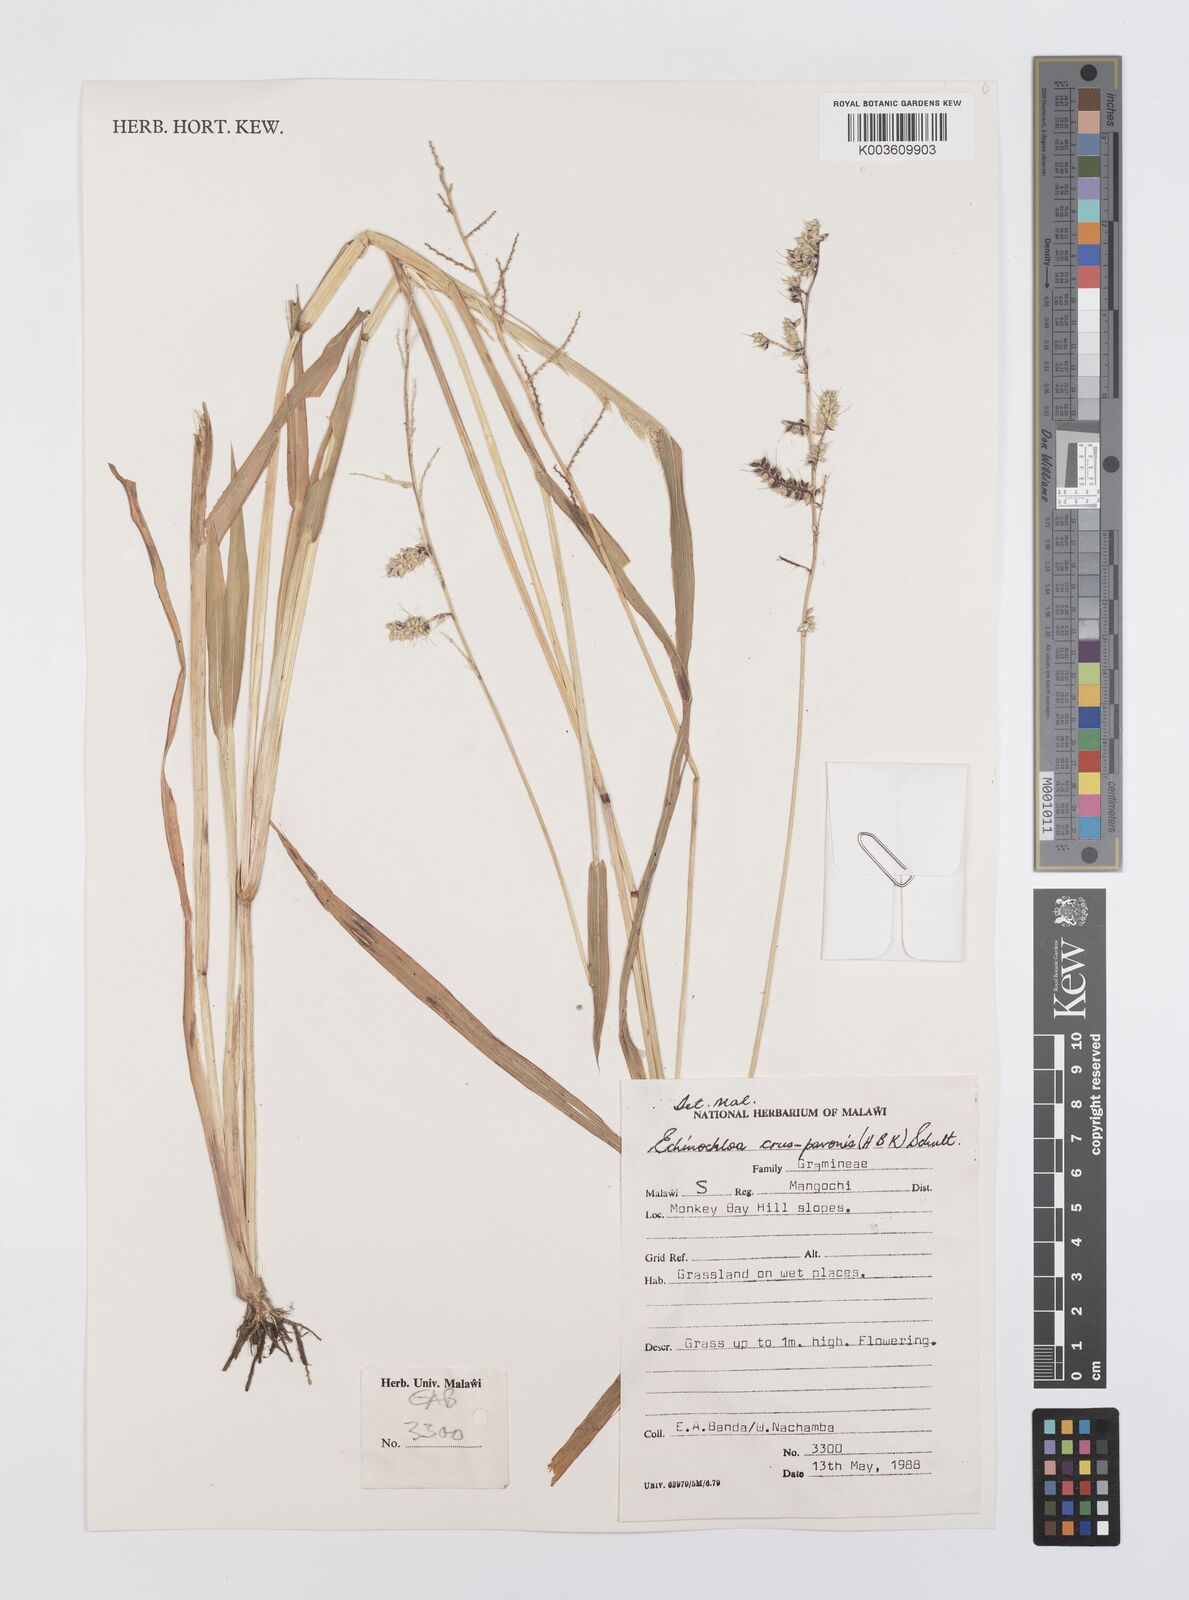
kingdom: Plantae
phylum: Tracheophyta
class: Liliopsida
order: Poales
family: Poaceae
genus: Echinochloa
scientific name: Echinochloa crus-pavonis
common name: Gulf cockspur grass
